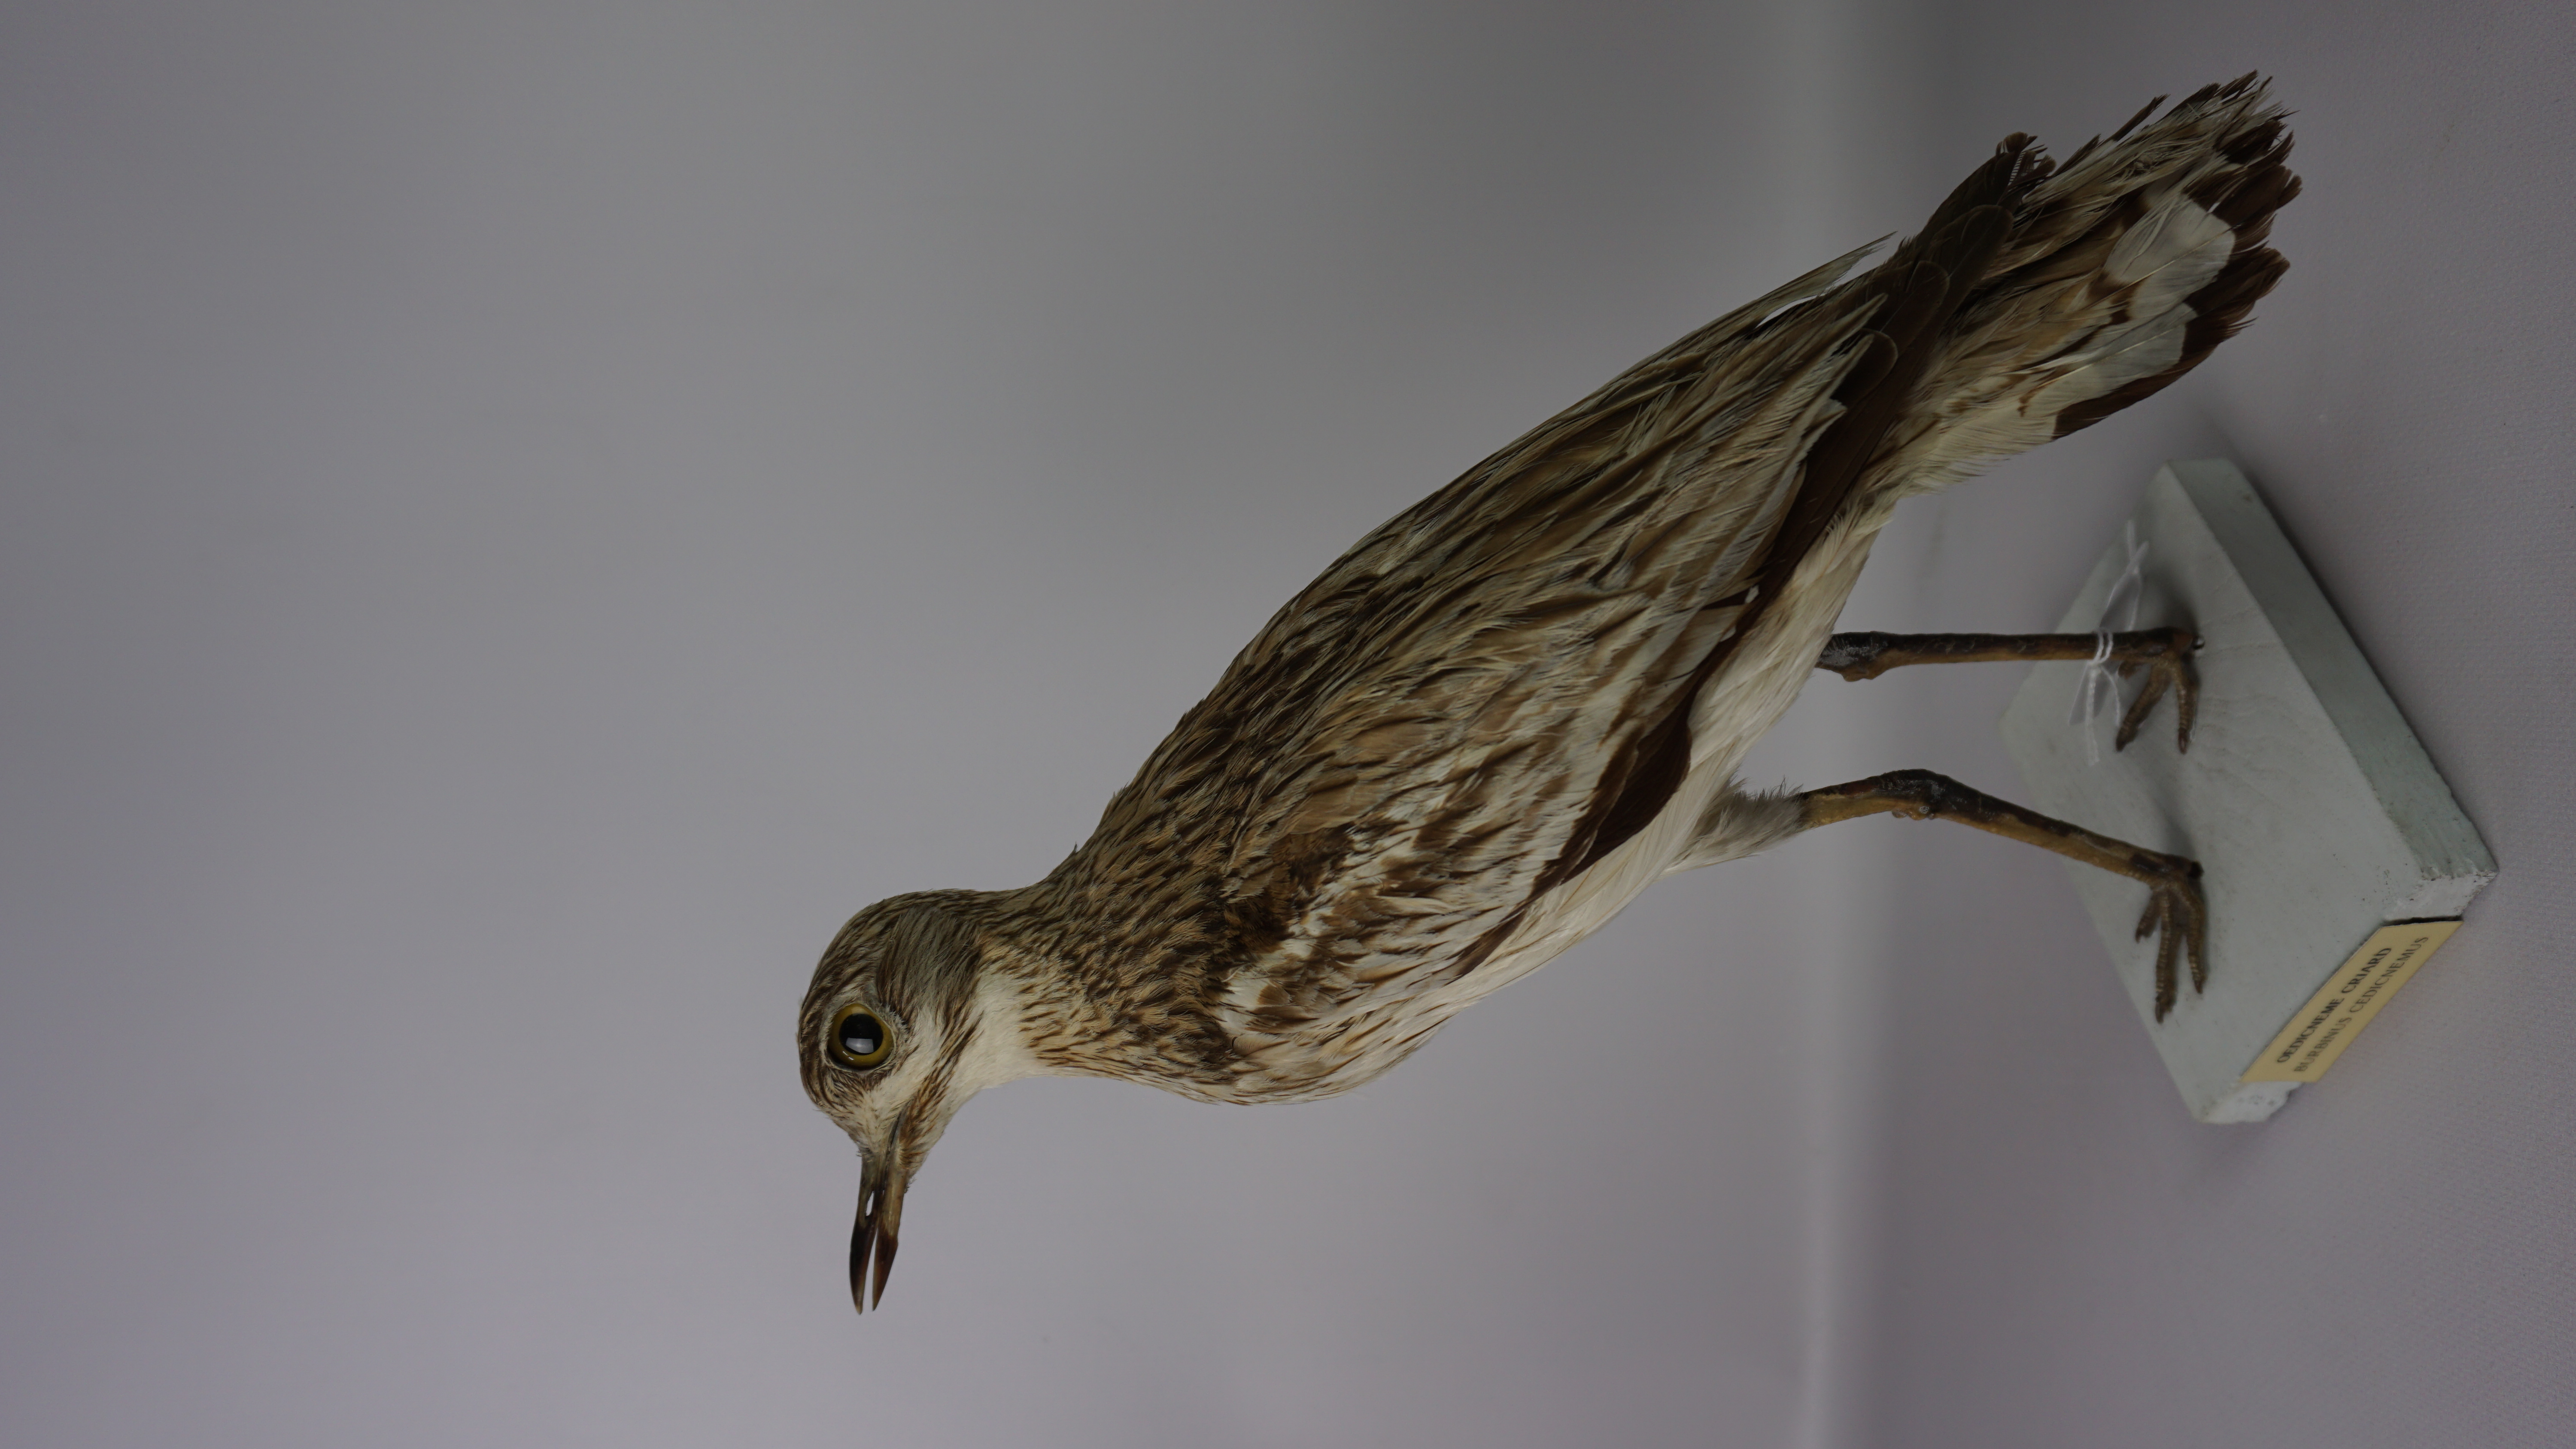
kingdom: Animalia
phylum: Chordata
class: Aves
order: Charadriiformes
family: Burhinidae
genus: Burhinus
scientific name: Burhinus oedicnemus
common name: Eurasian stone-curlew
